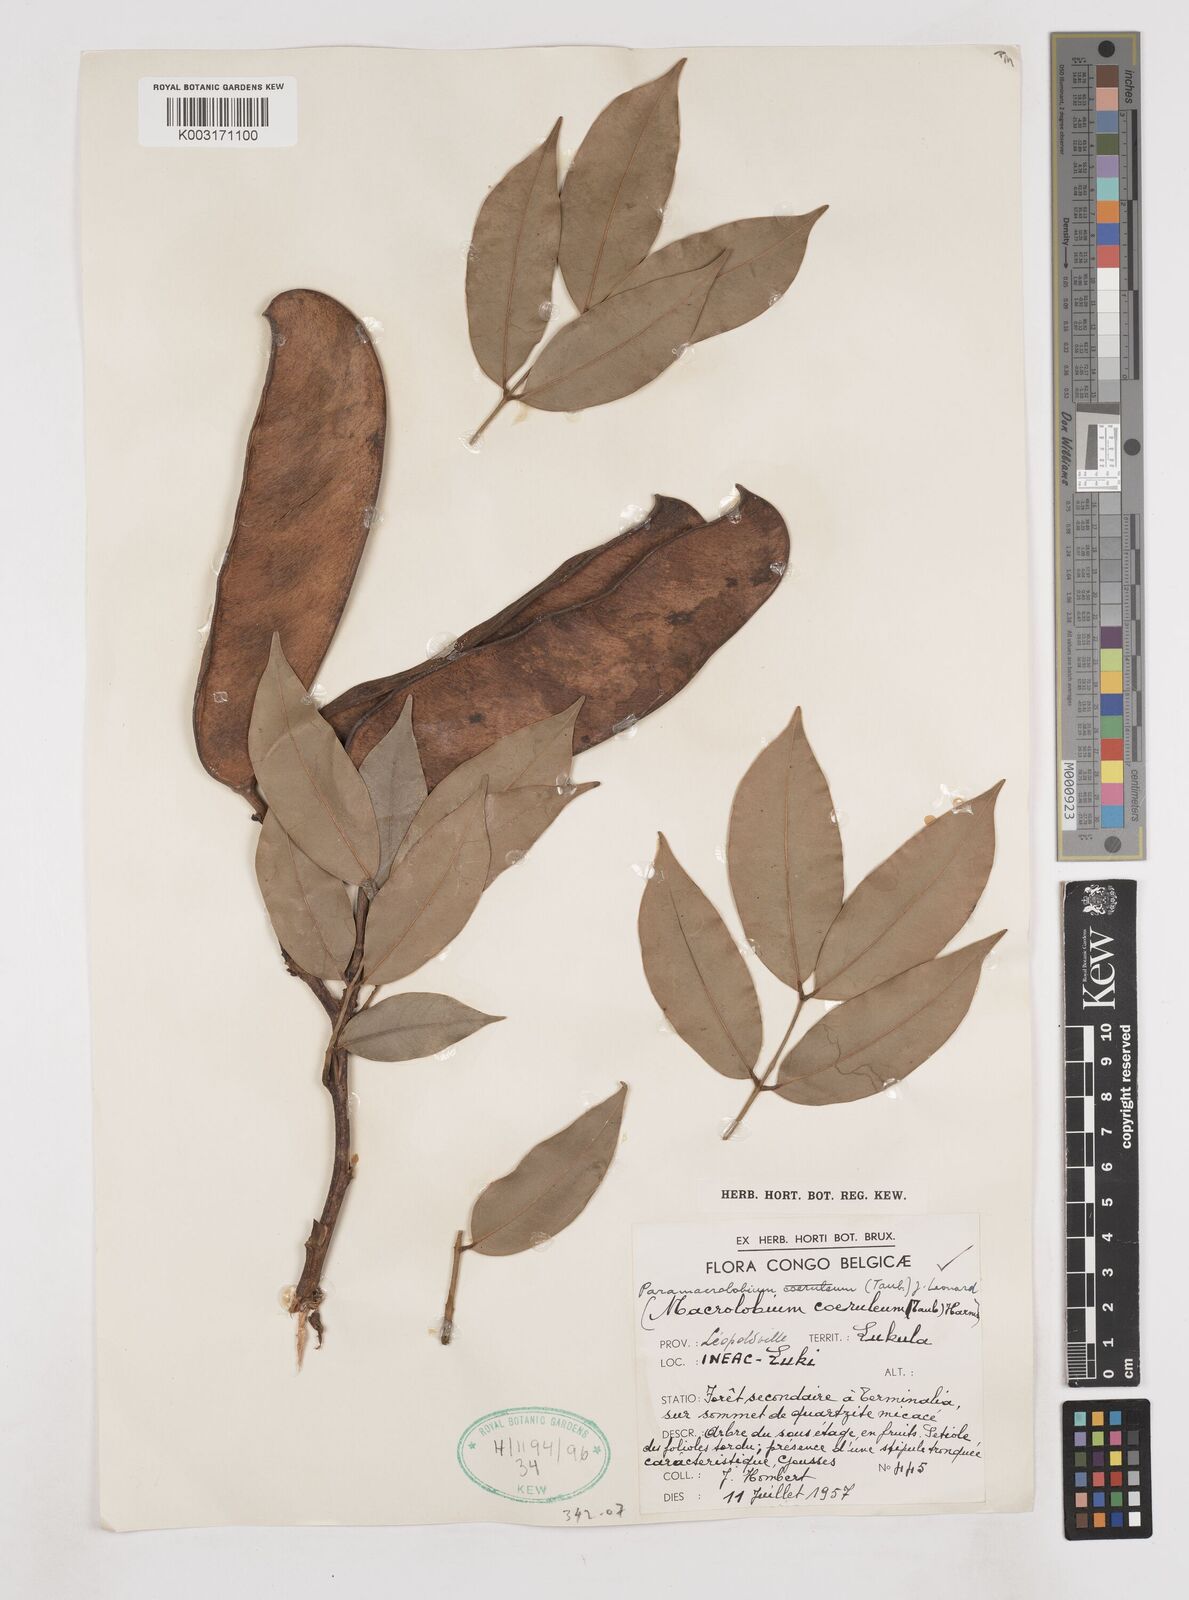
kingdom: Plantae
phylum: Tracheophyta
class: Magnoliopsida
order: Fabales
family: Fabaceae
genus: Paramacrolobium
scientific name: Paramacrolobium coeruleum
